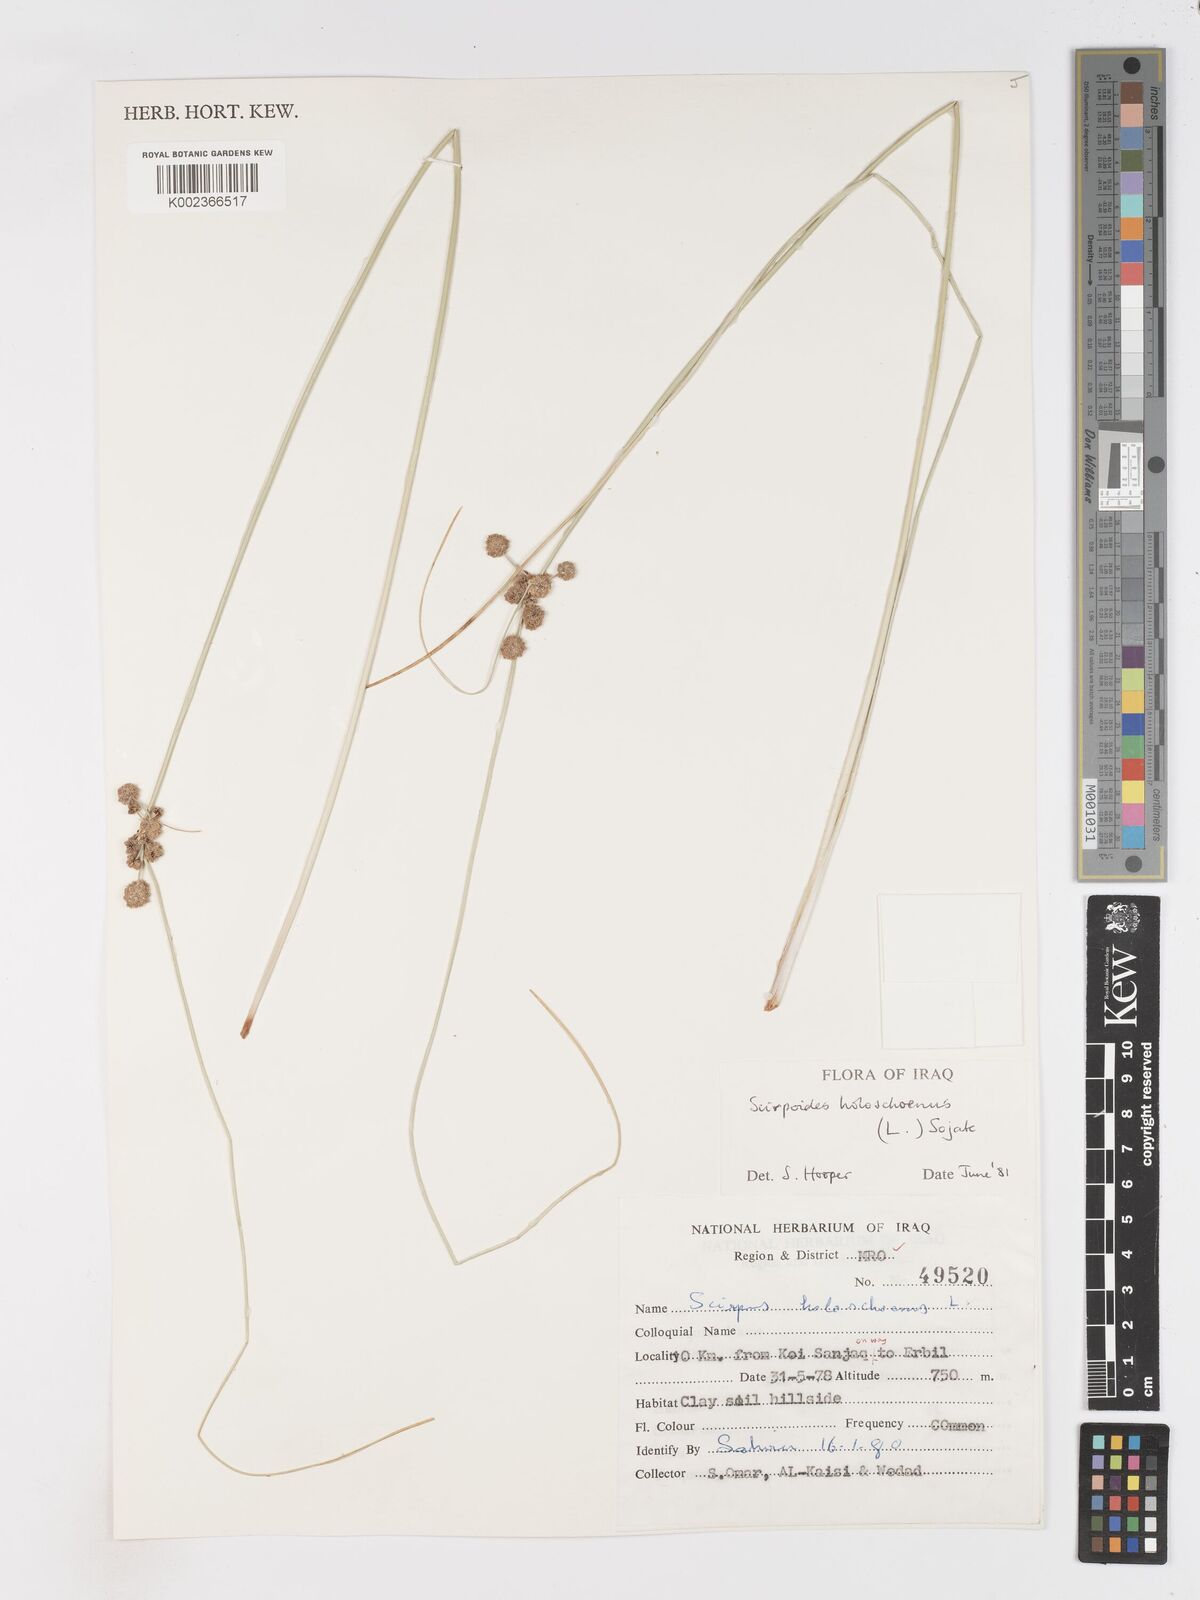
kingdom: Plantae
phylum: Tracheophyta
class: Liliopsida
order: Poales
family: Cyperaceae
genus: Scirpoides
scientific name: Scirpoides holoschoenus
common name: Round-headed club-rush
